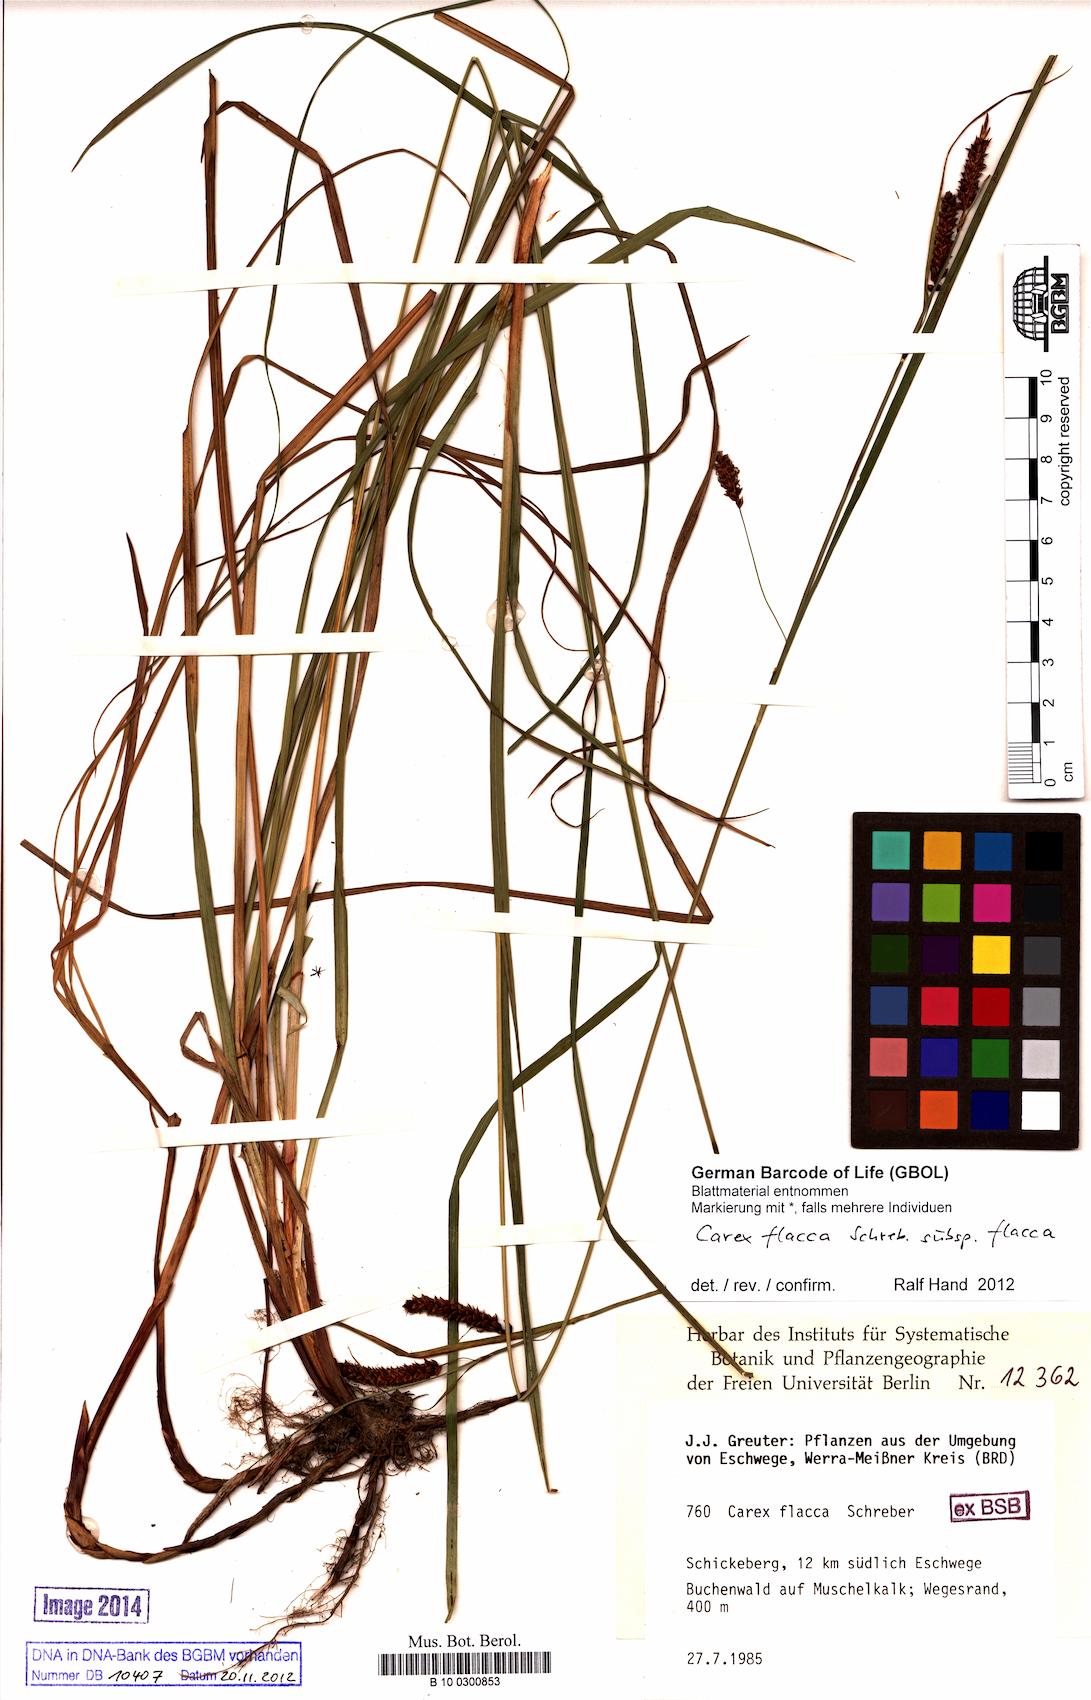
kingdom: Plantae
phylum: Tracheophyta
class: Liliopsida
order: Poales
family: Cyperaceae
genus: Carex
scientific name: Carex flacca
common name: Glaucous sedge
